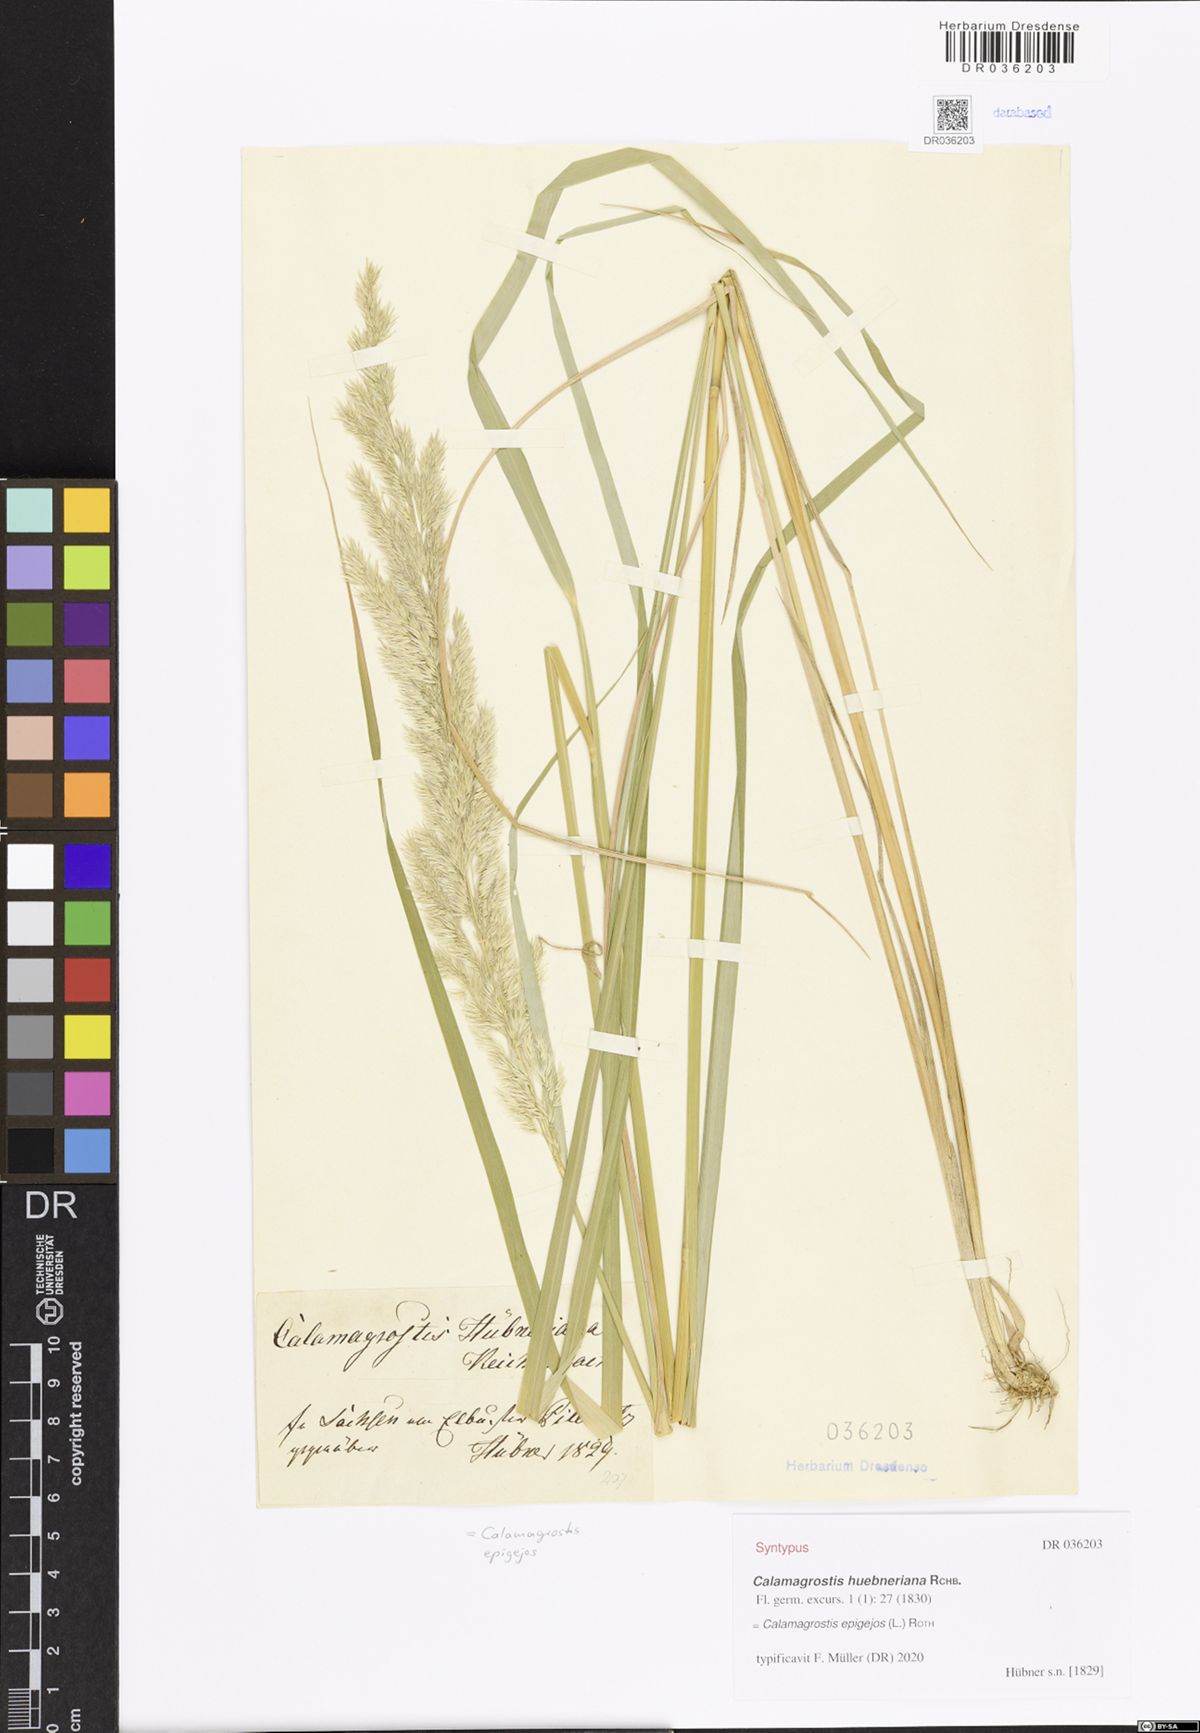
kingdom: Plantae
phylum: Tracheophyta
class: Liliopsida
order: Poales
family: Poaceae
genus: Calamagrostis
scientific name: Calamagrostis epigejos
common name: Wood small-reed
